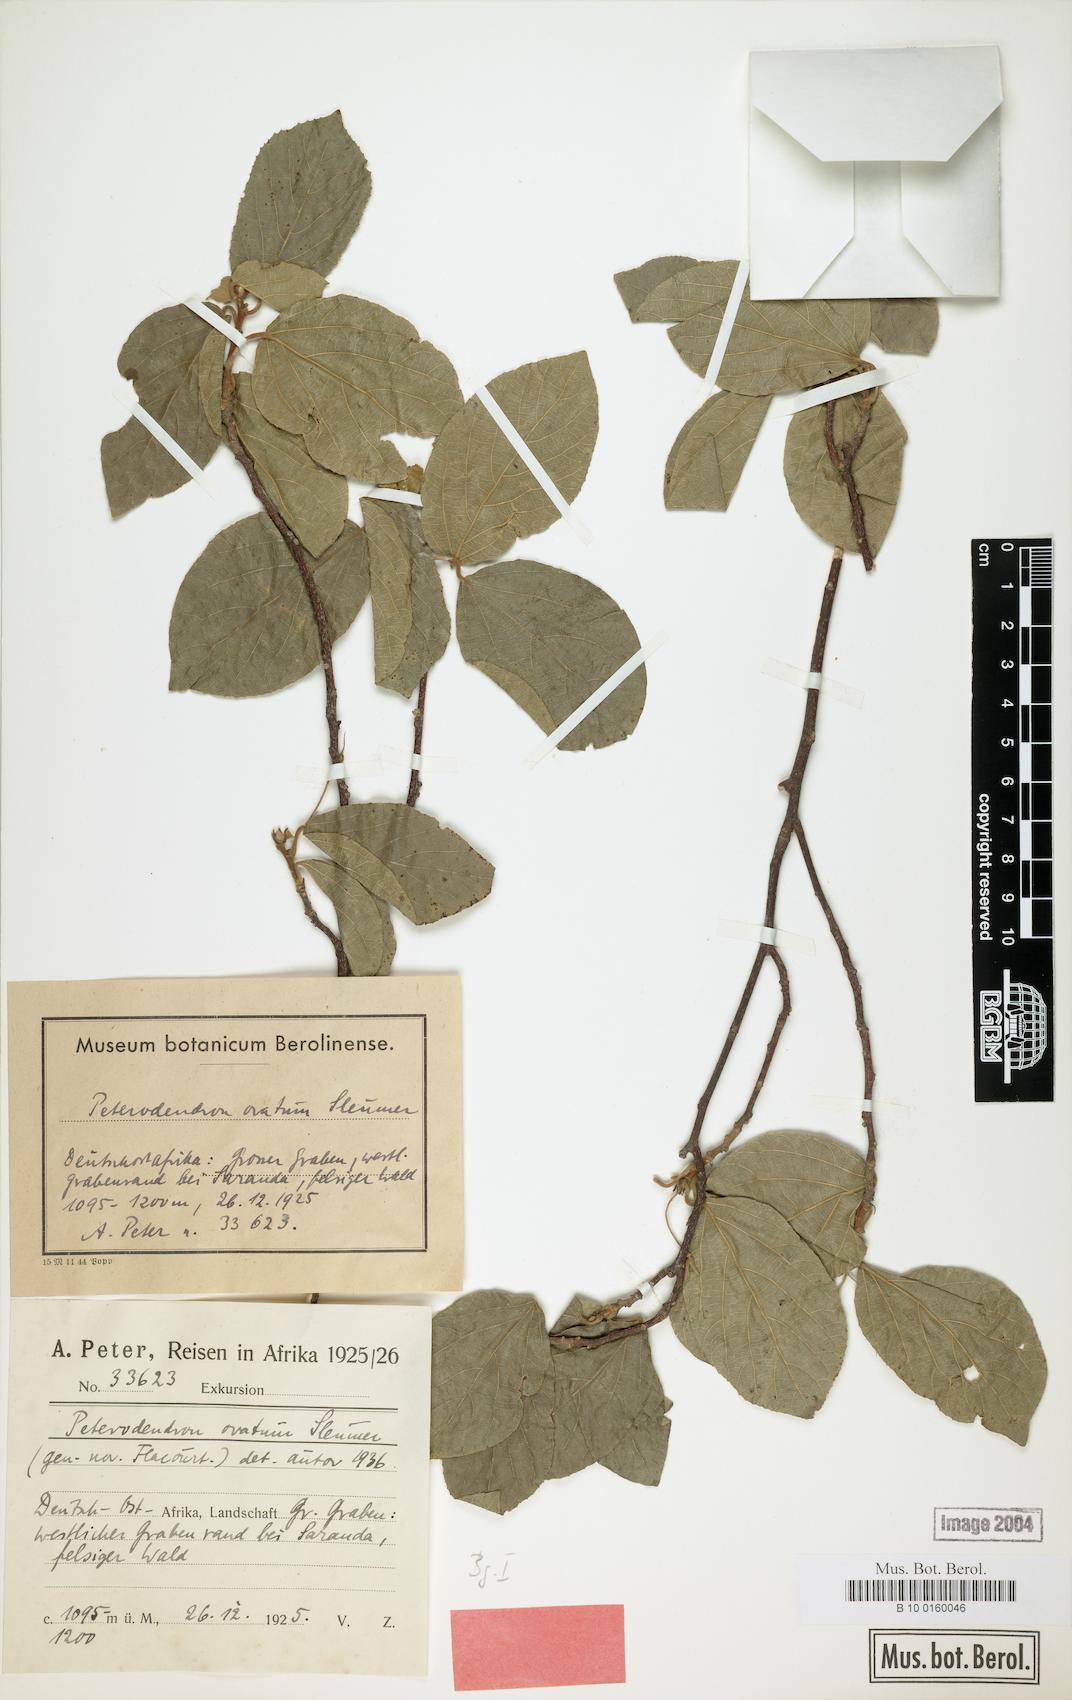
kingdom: Plantae
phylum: Tracheophyta
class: Magnoliopsida
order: Malpighiales
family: Achariaceae
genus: Peterodendron
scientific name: Peterodendron ovatum
